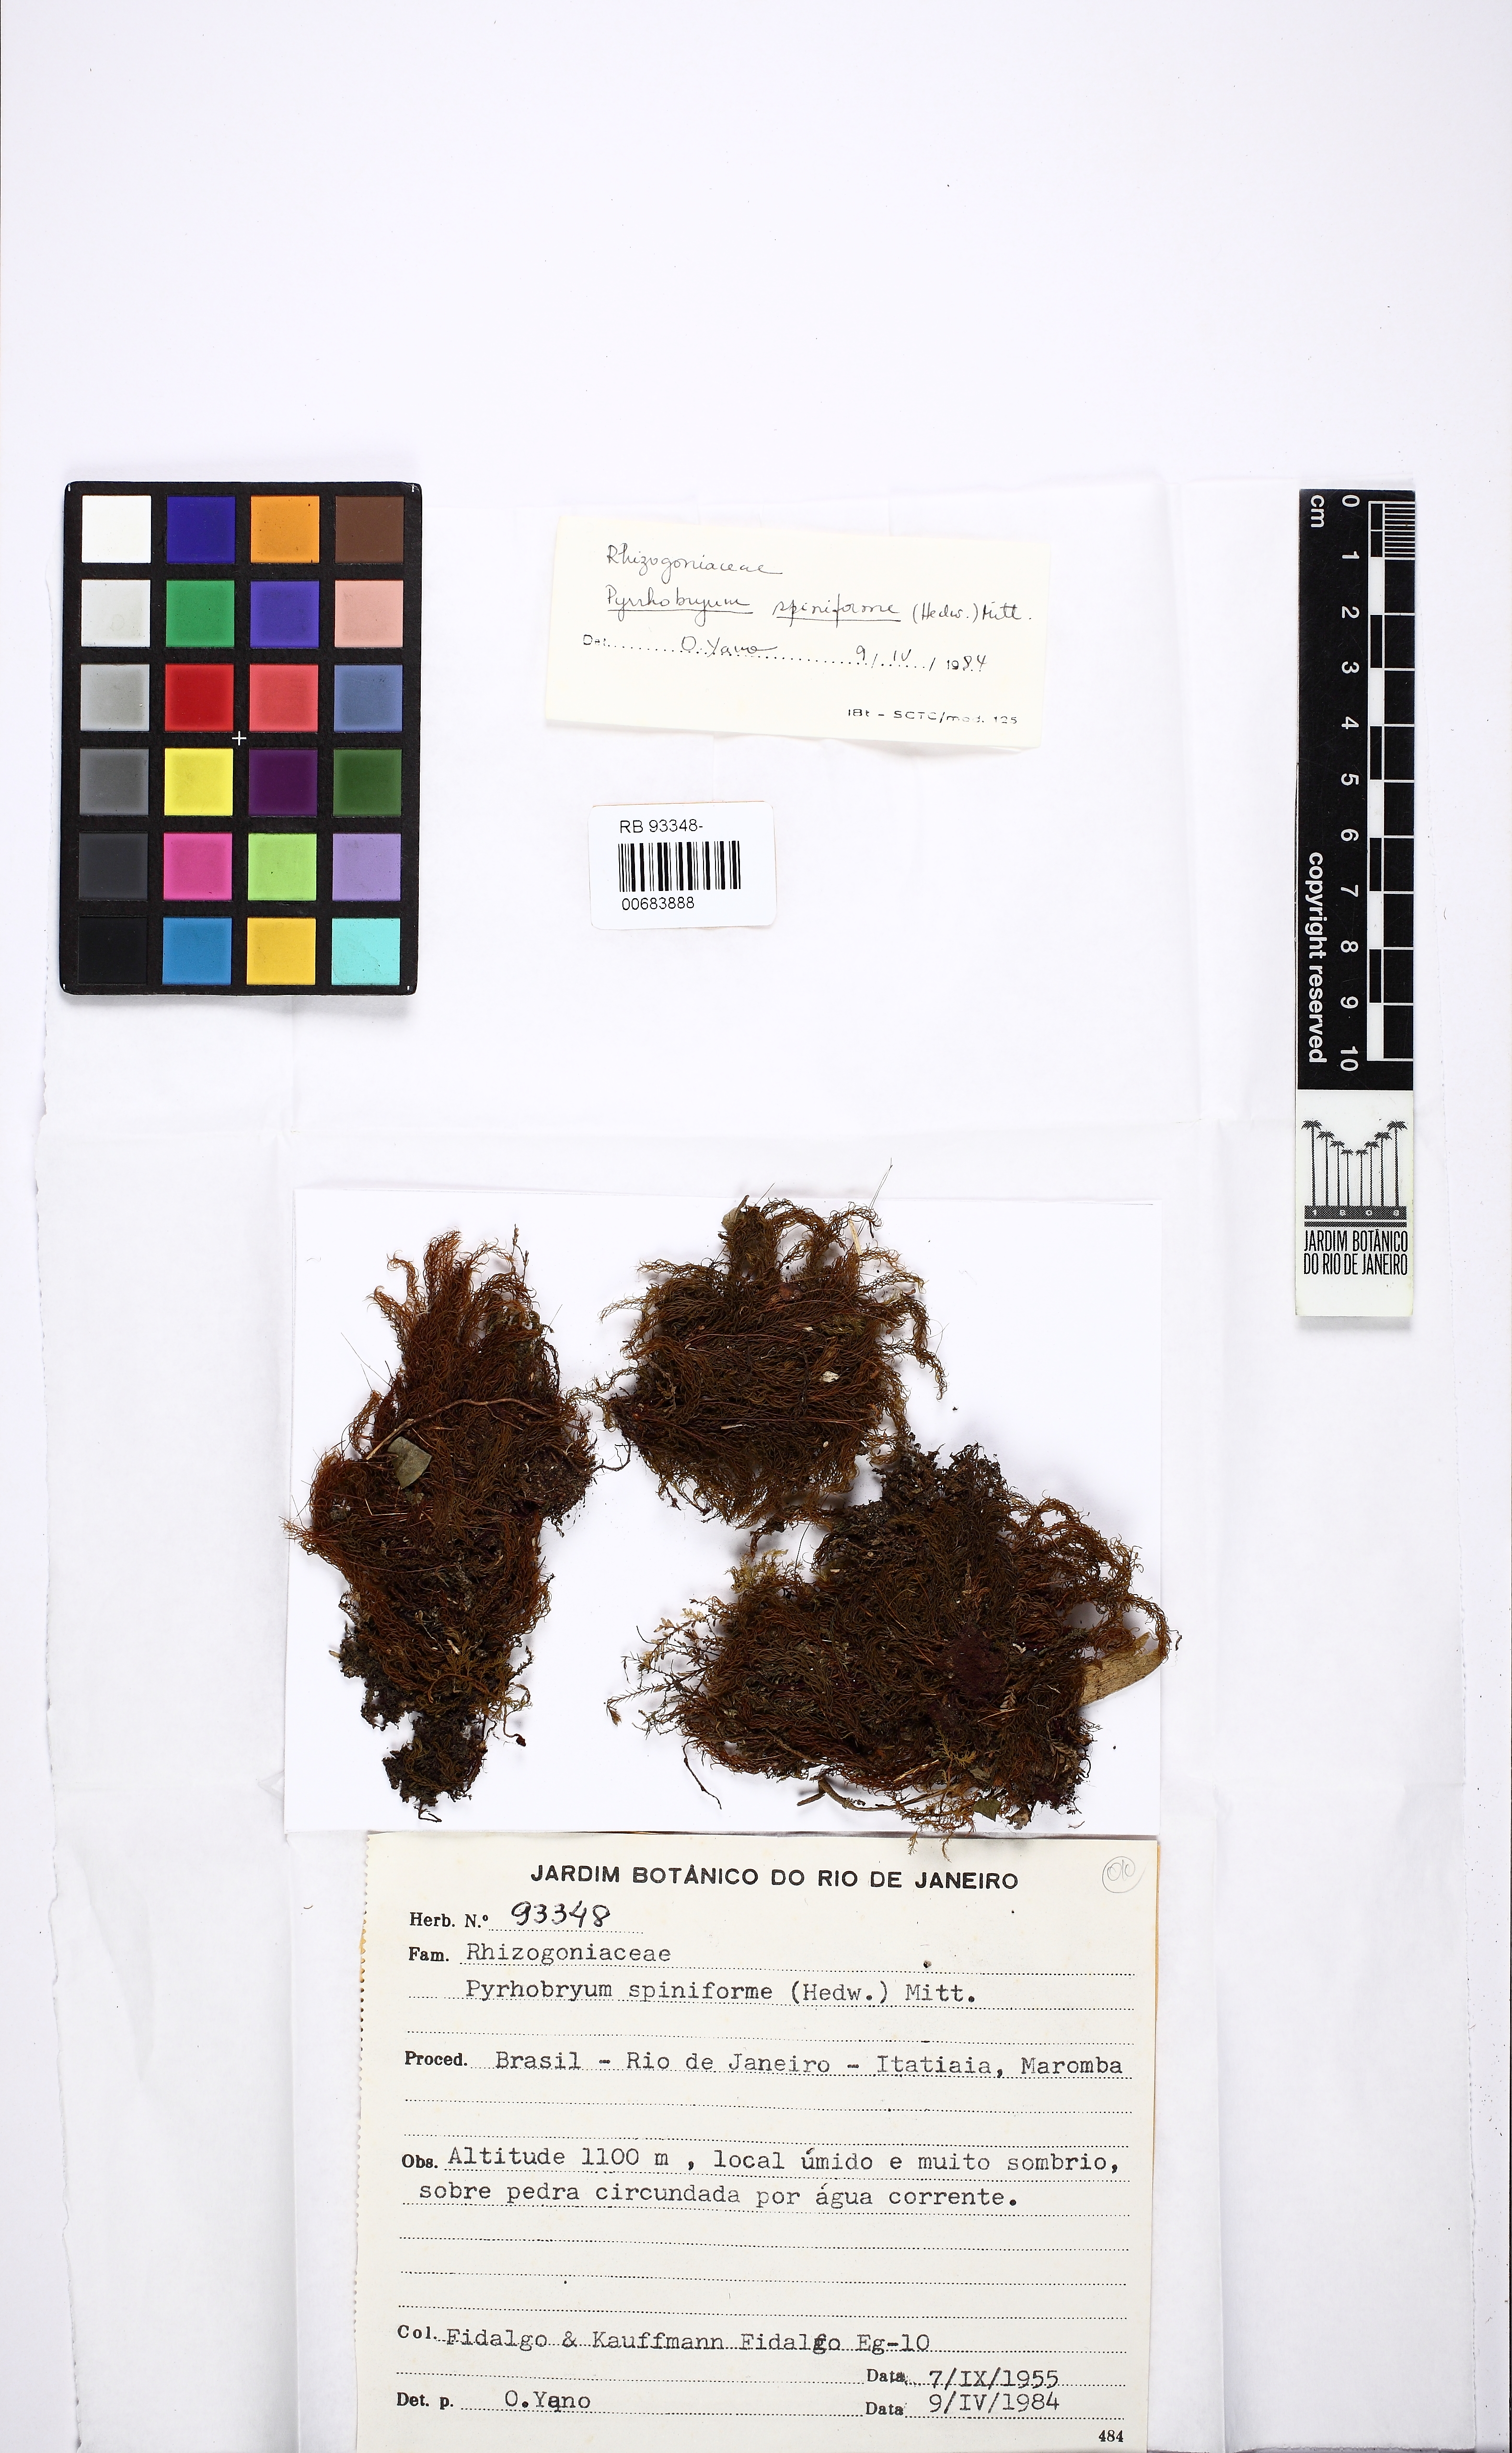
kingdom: Plantae
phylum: Bryophyta
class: Bryopsida
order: Rhizogoniales
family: Calomniaceae
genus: Pyrrhobryum
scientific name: Pyrrhobryum spiniforme
